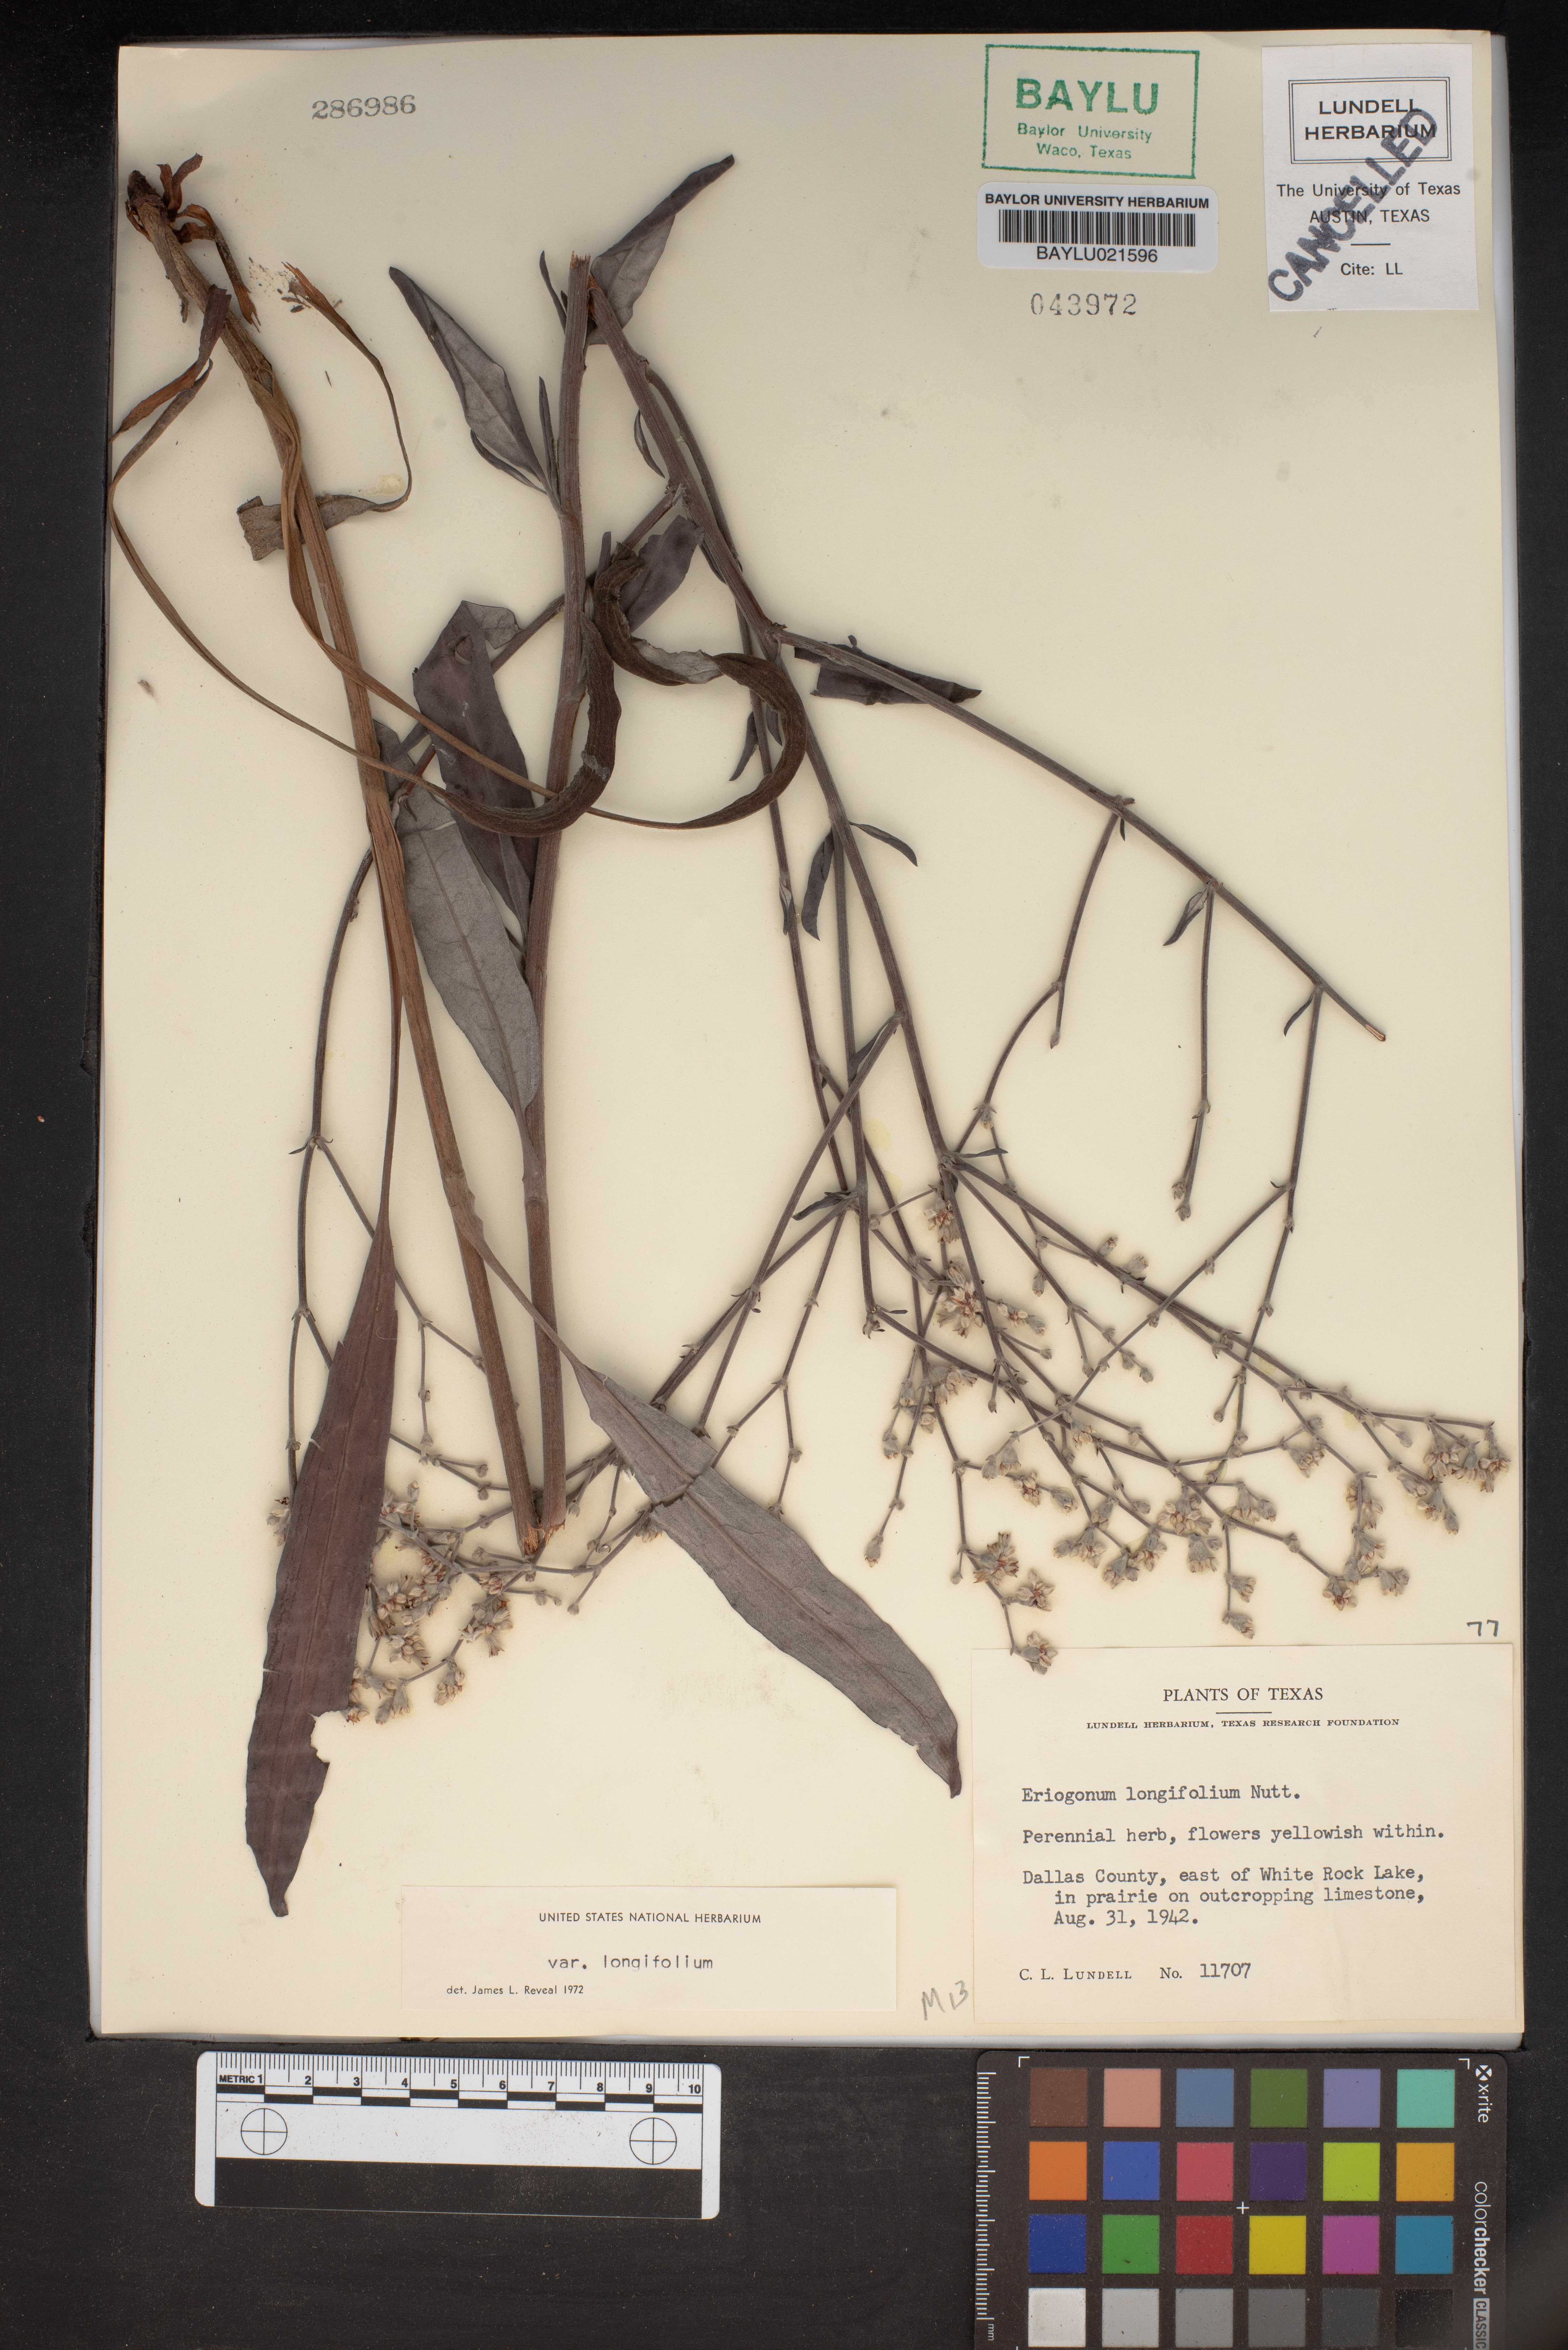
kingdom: Plantae
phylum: Tracheophyta
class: Magnoliopsida
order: Caryophyllales
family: Polygonaceae
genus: Eriogonum
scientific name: Eriogonum longifolium
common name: Longleaf wild buckwheat
